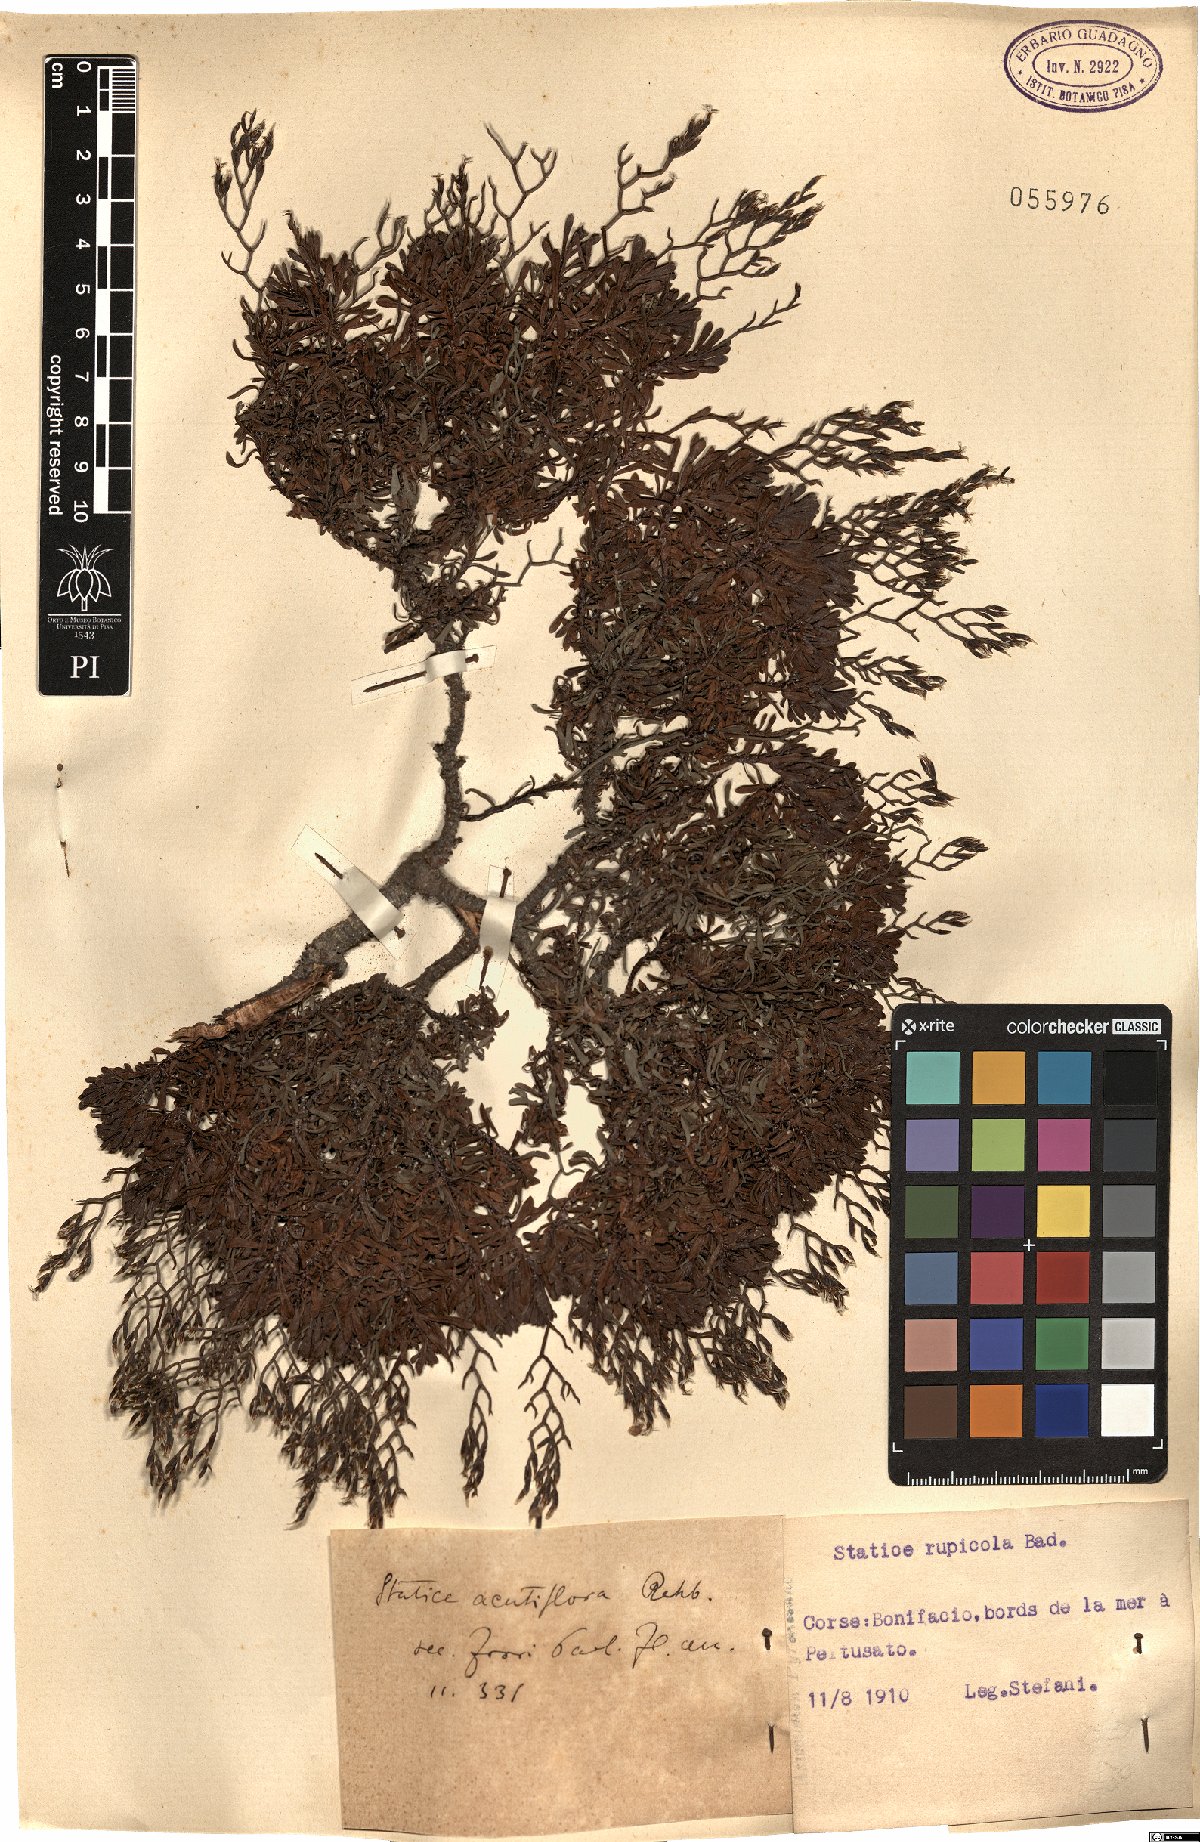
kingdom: Plantae
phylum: Tracheophyta
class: Magnoliopsida
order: Caryophyllales
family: Plumbaginaceae
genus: Limonium
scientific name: Limonium acutifolium
